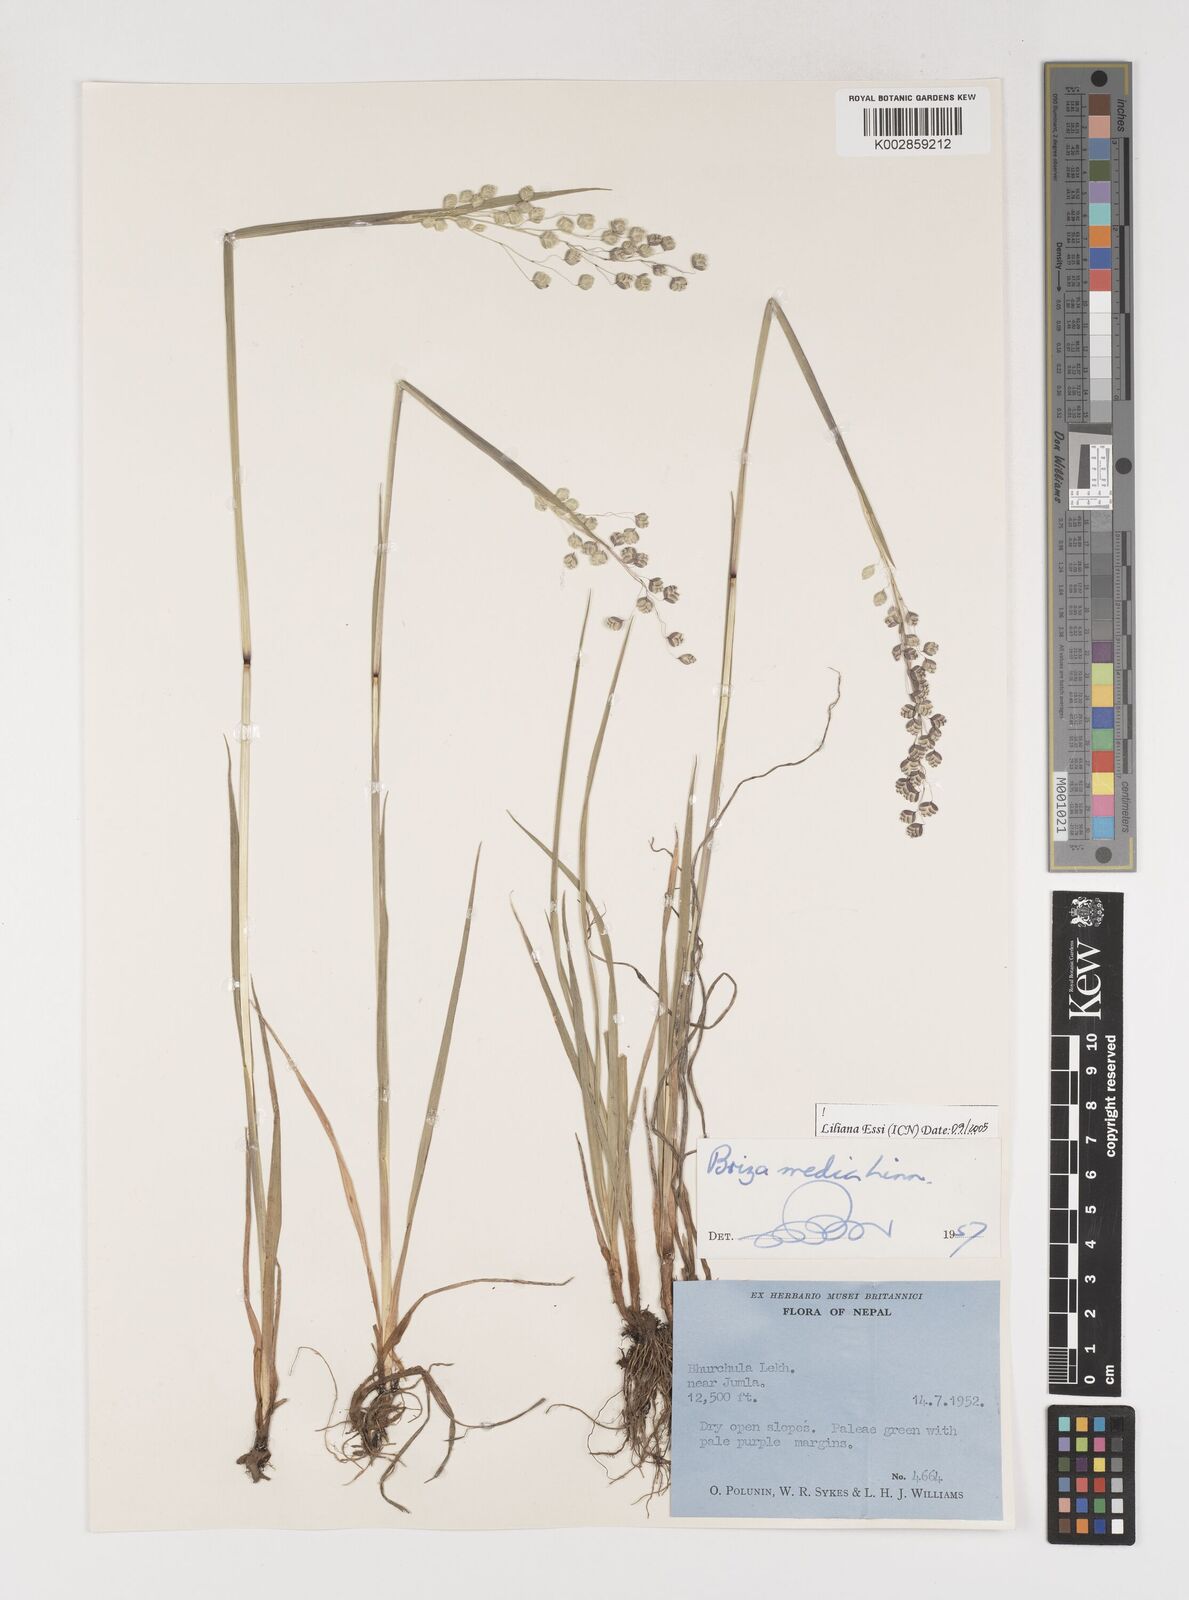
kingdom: Plantae
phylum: Tracheophyta
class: Liliopsida
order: Poales
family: Poaceae
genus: Briza
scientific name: Briza media
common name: Quaking grass
